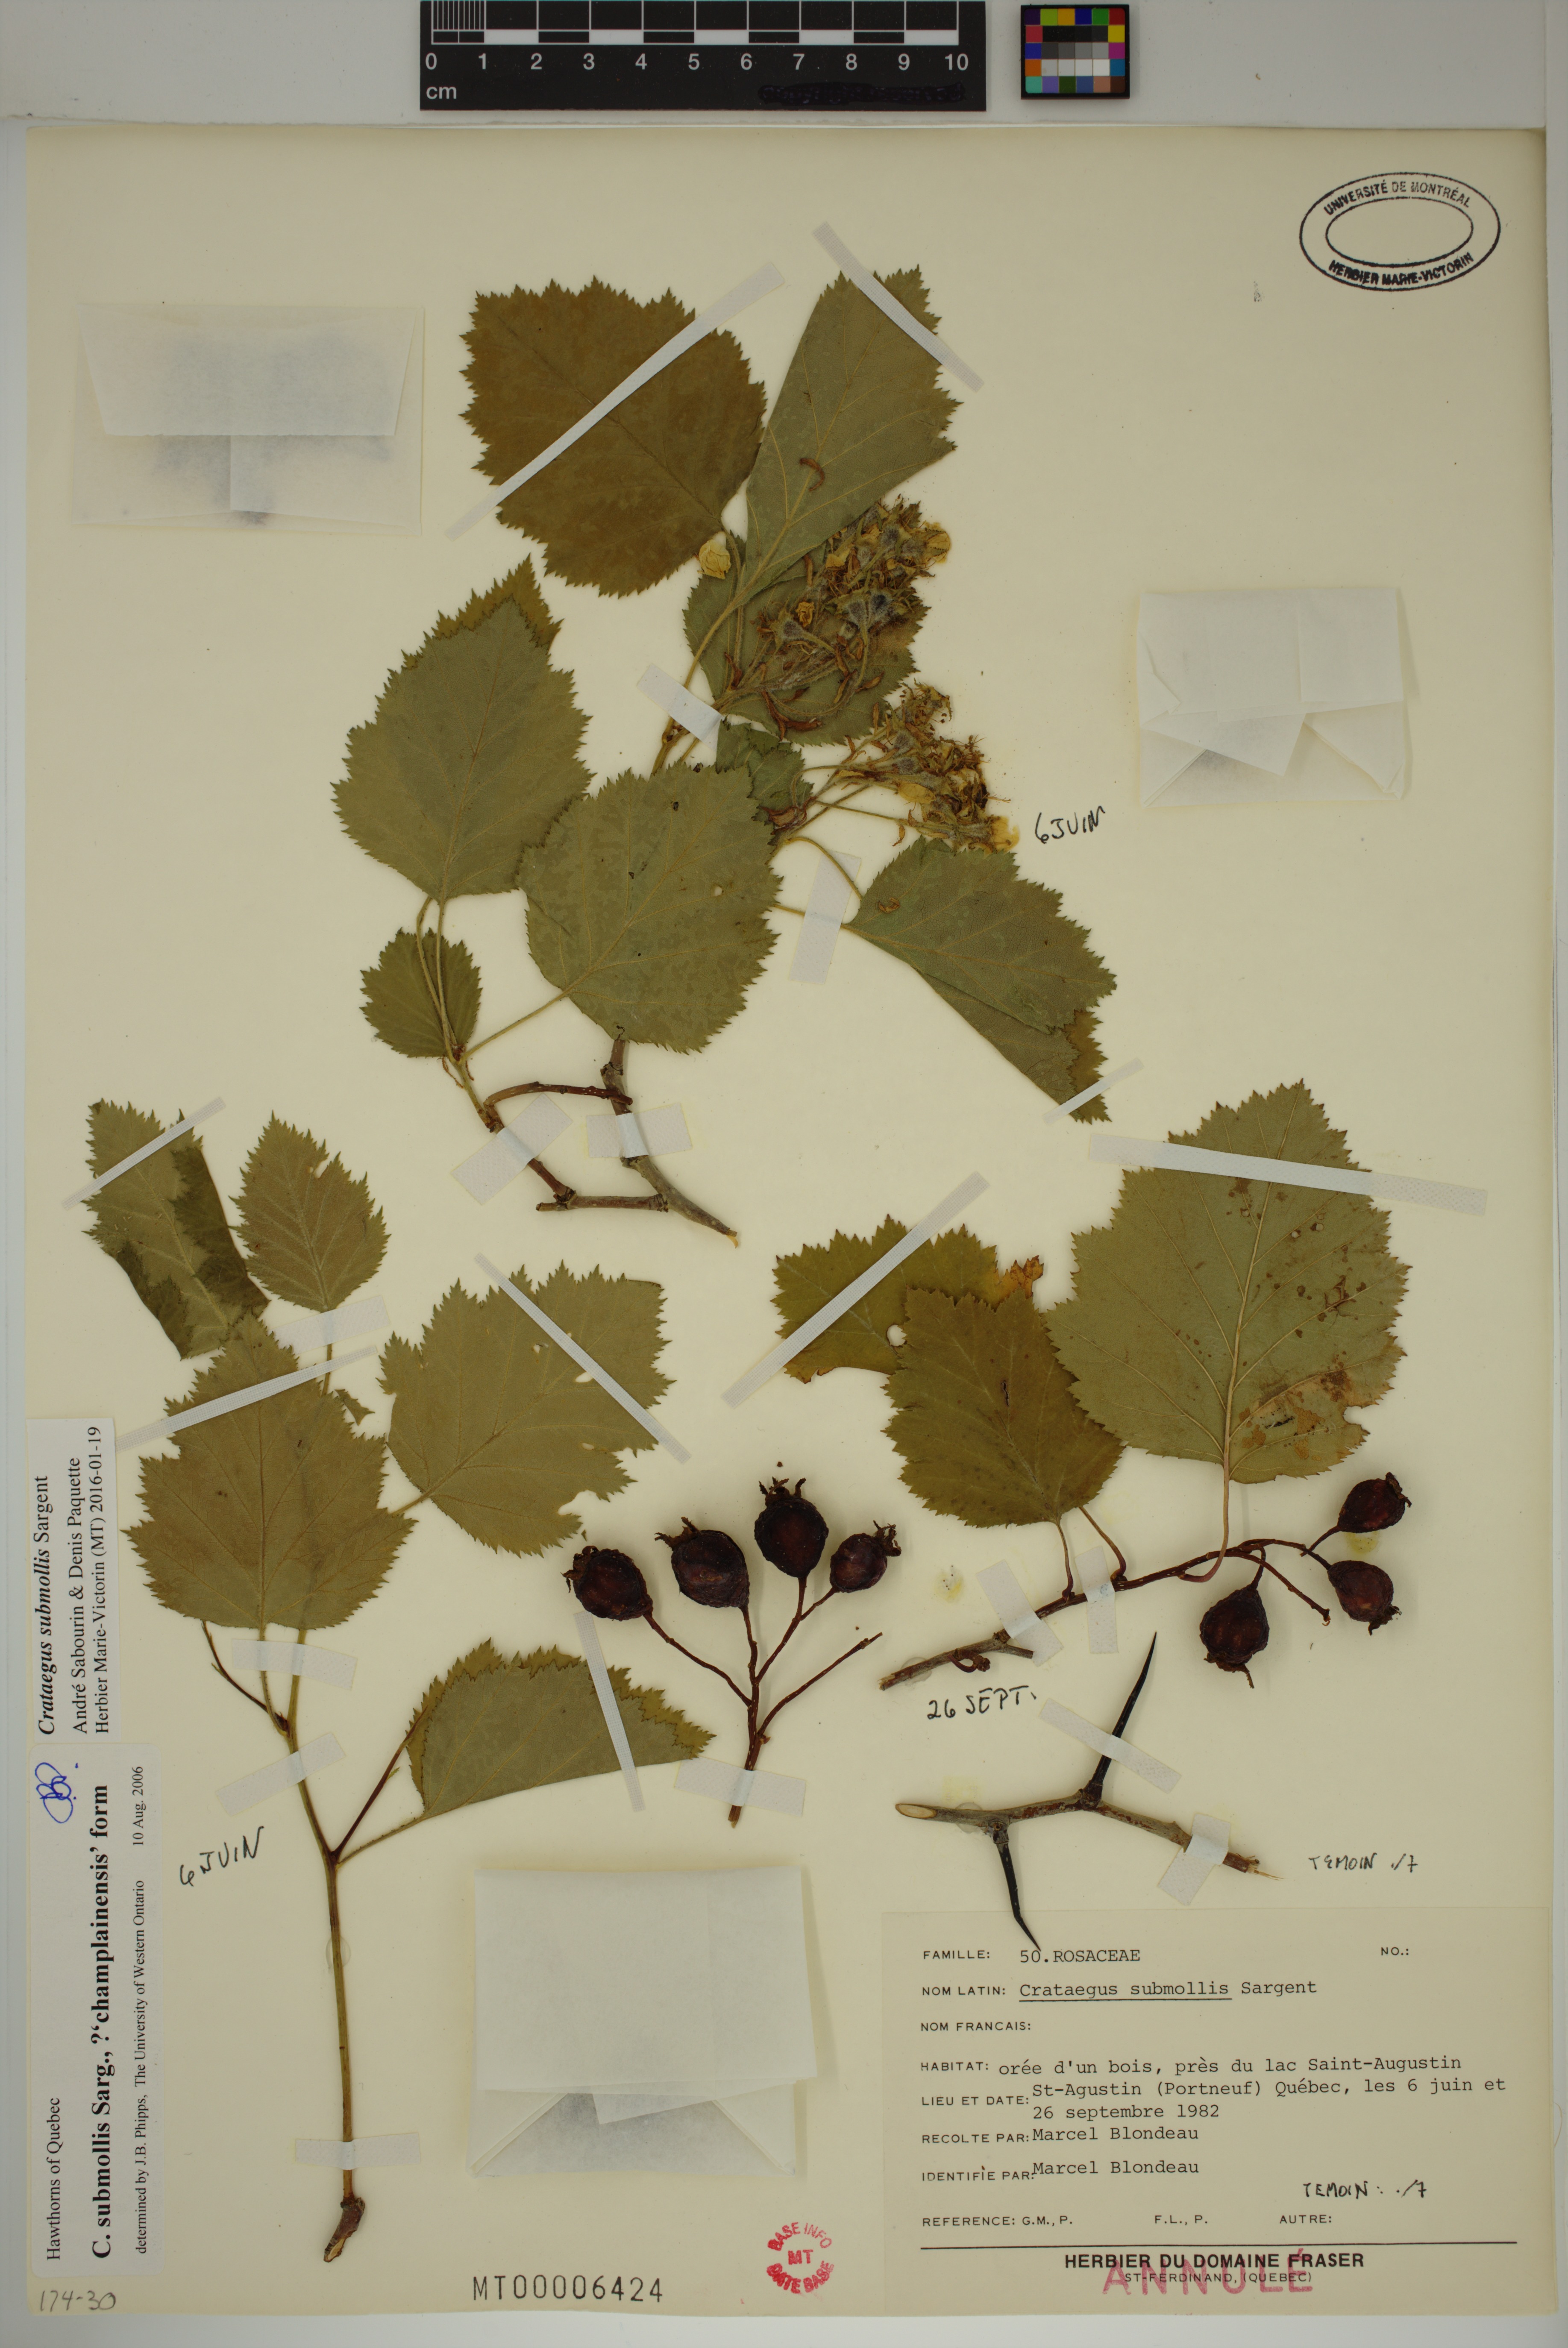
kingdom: Plantae
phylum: Tracheophyta
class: Magnoliopsida
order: Rosales
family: Rosaceae
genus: Crataegus
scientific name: Crataegus submollis
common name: Hairy cockspurthorn
